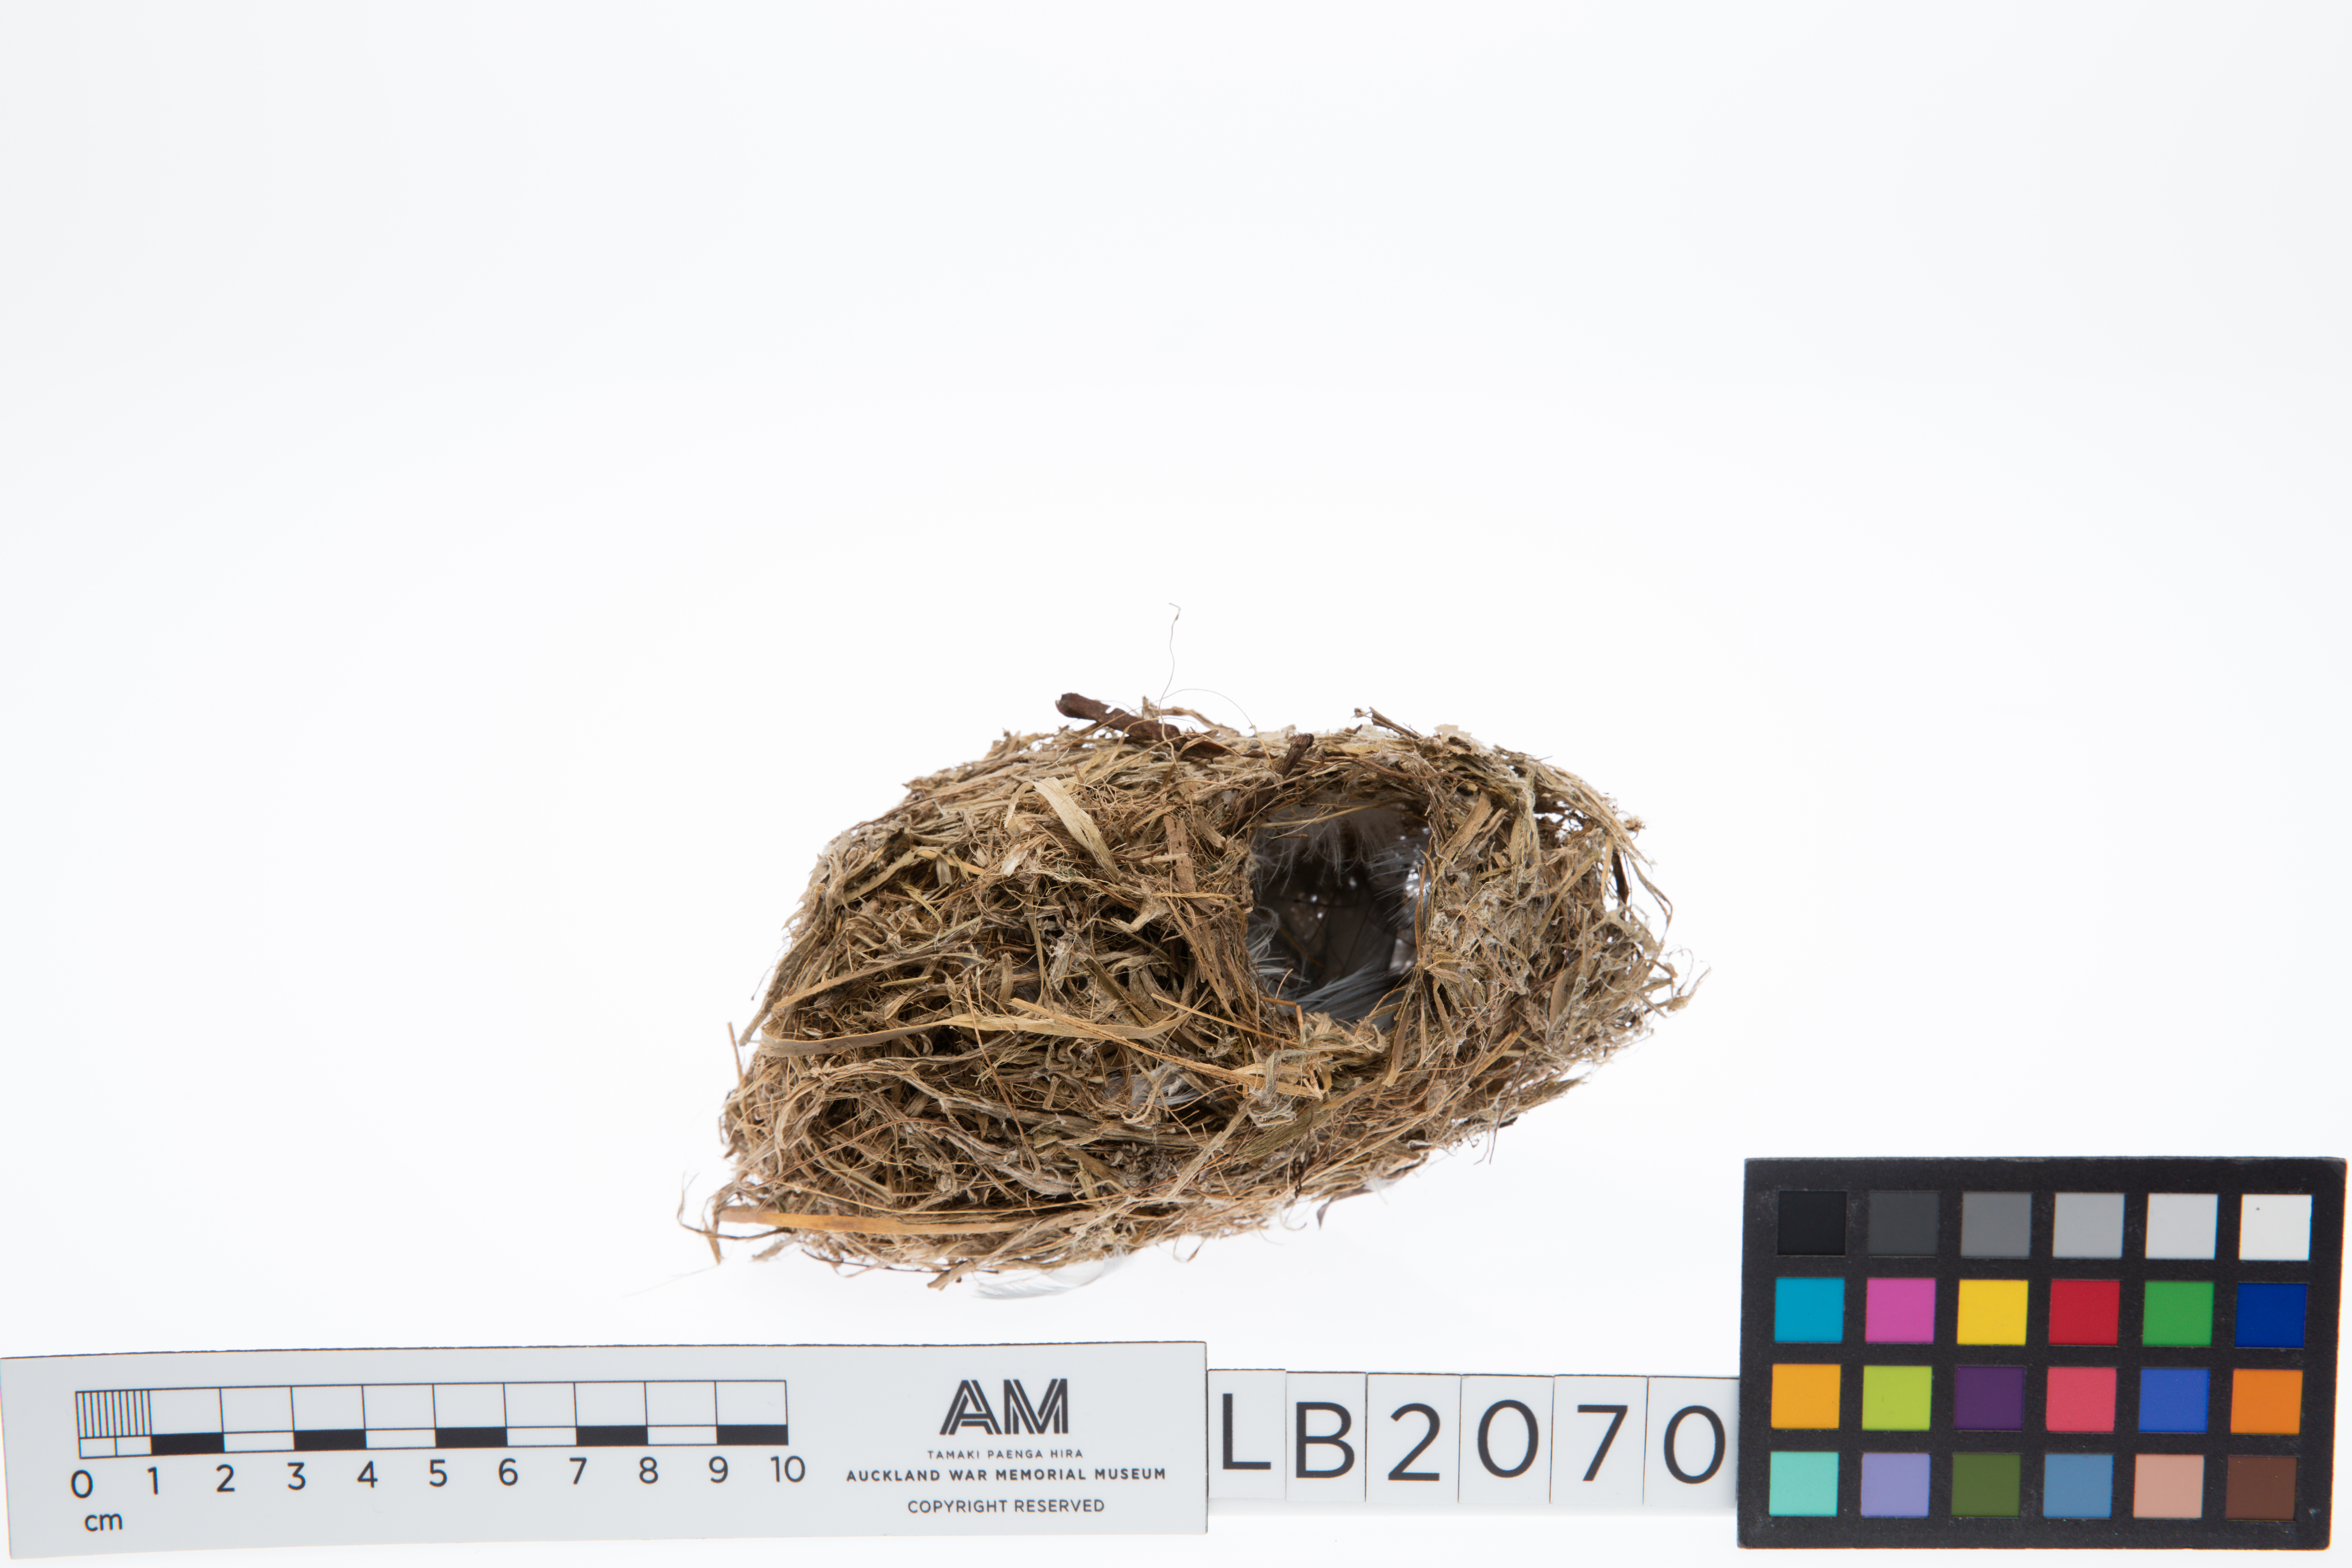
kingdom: Animalia
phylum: Chordata
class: Aves
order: Passeriformes
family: Acanthizidae
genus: Gerygone
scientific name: Gerygone albofrontata
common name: Chatham gerygone
